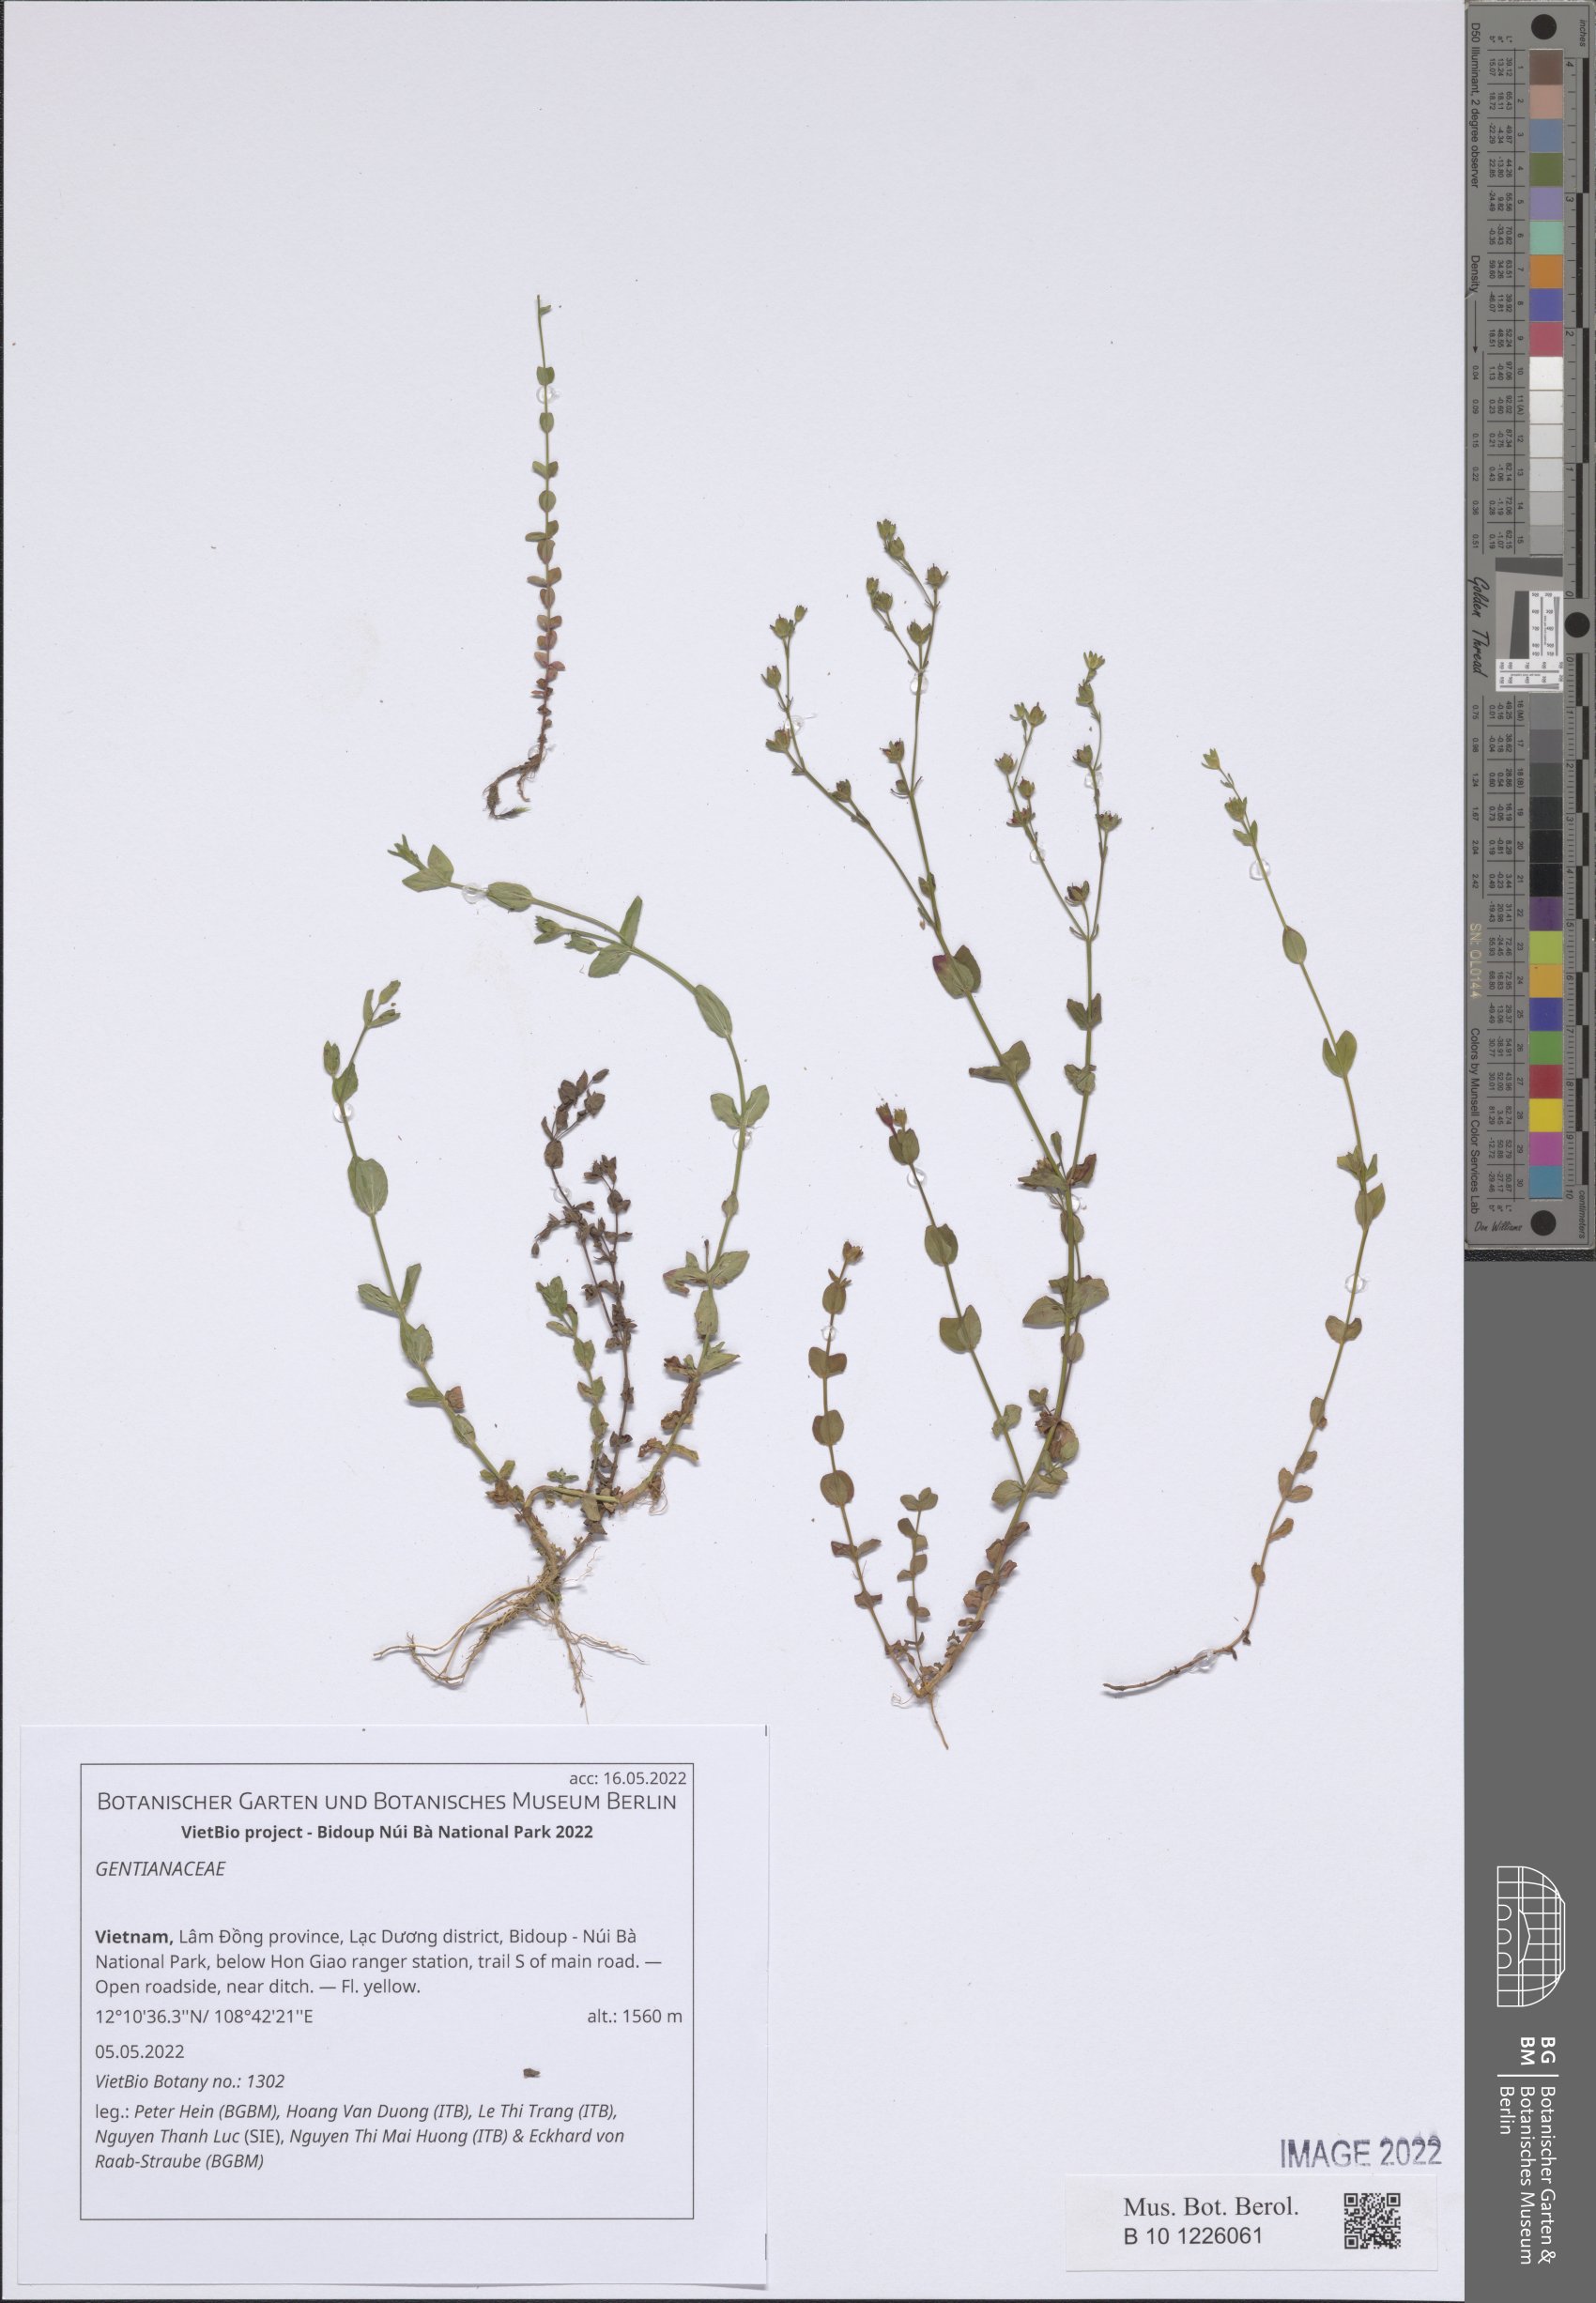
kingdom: Plantae
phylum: Tracheophyta
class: Magnoliopsida
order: Gentianales
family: Gentianaceae
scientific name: Gentianaceae
